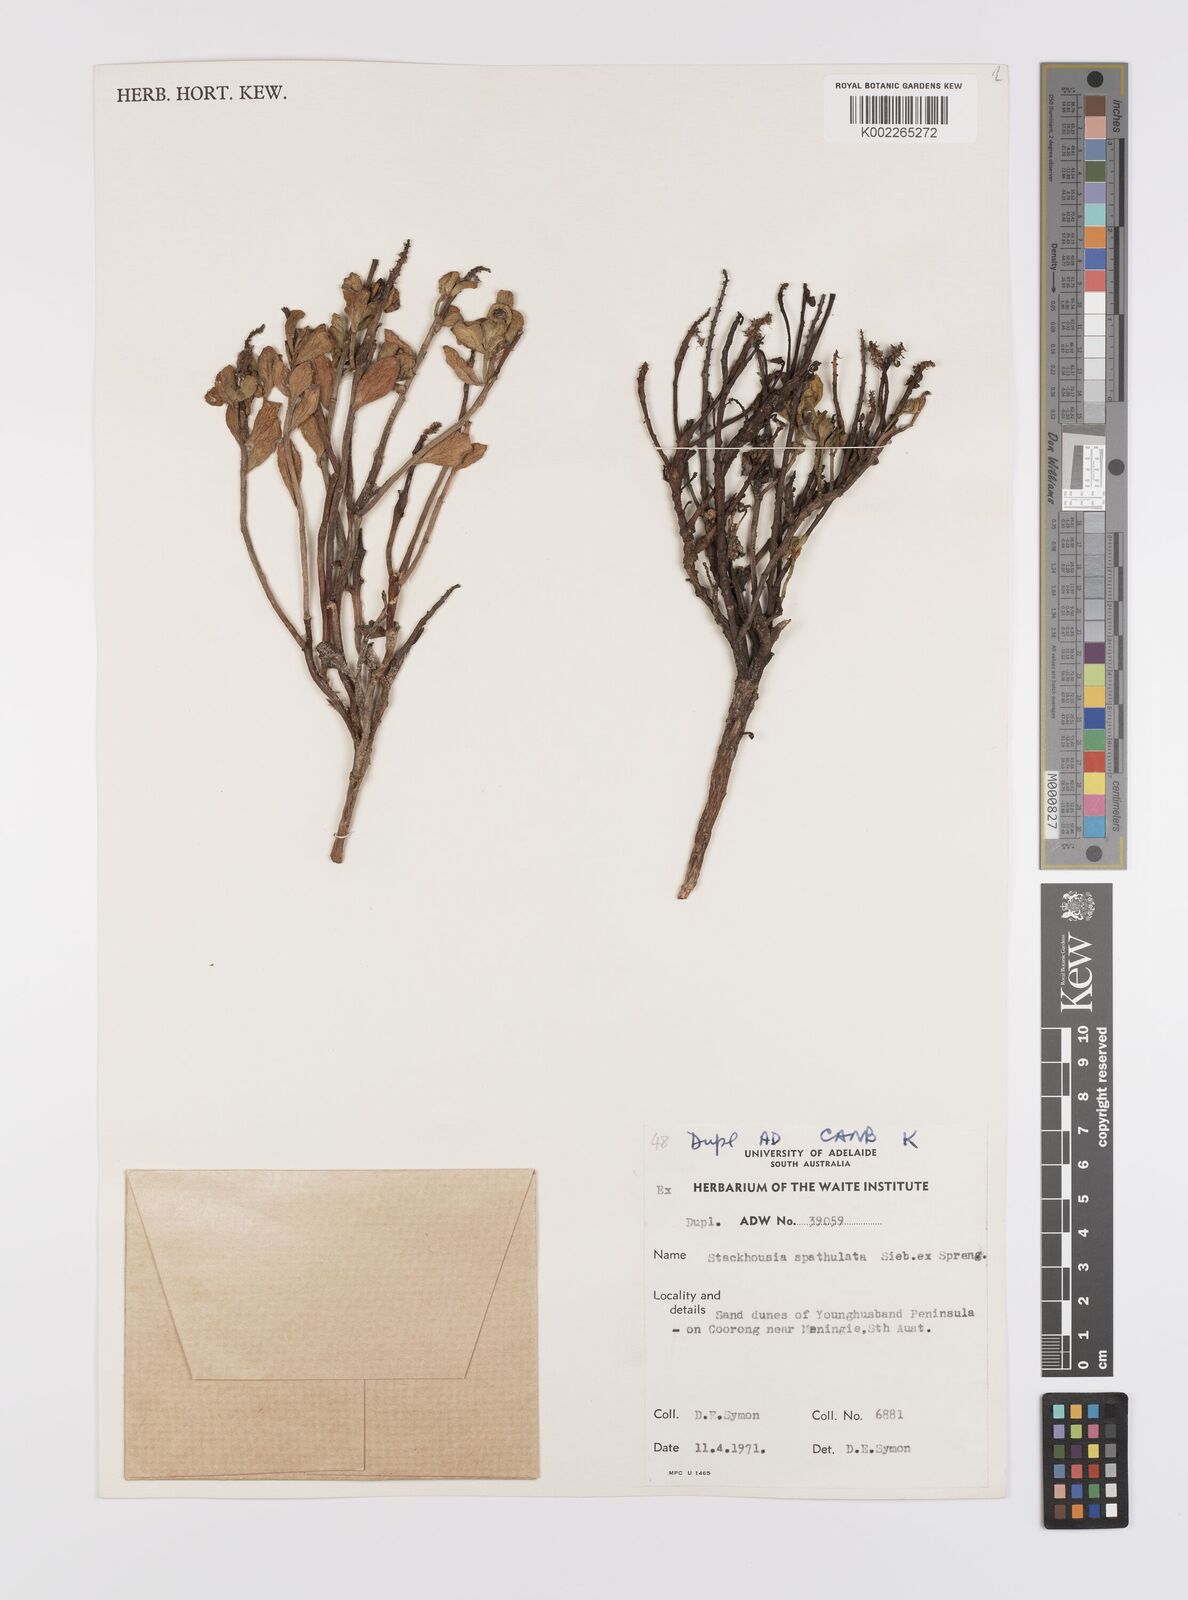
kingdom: Plantae
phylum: Tracheophyta
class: Magnoliopsida
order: Celastrales
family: Celastraceae
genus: Stackhousia
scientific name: Stackhousia spathulata
